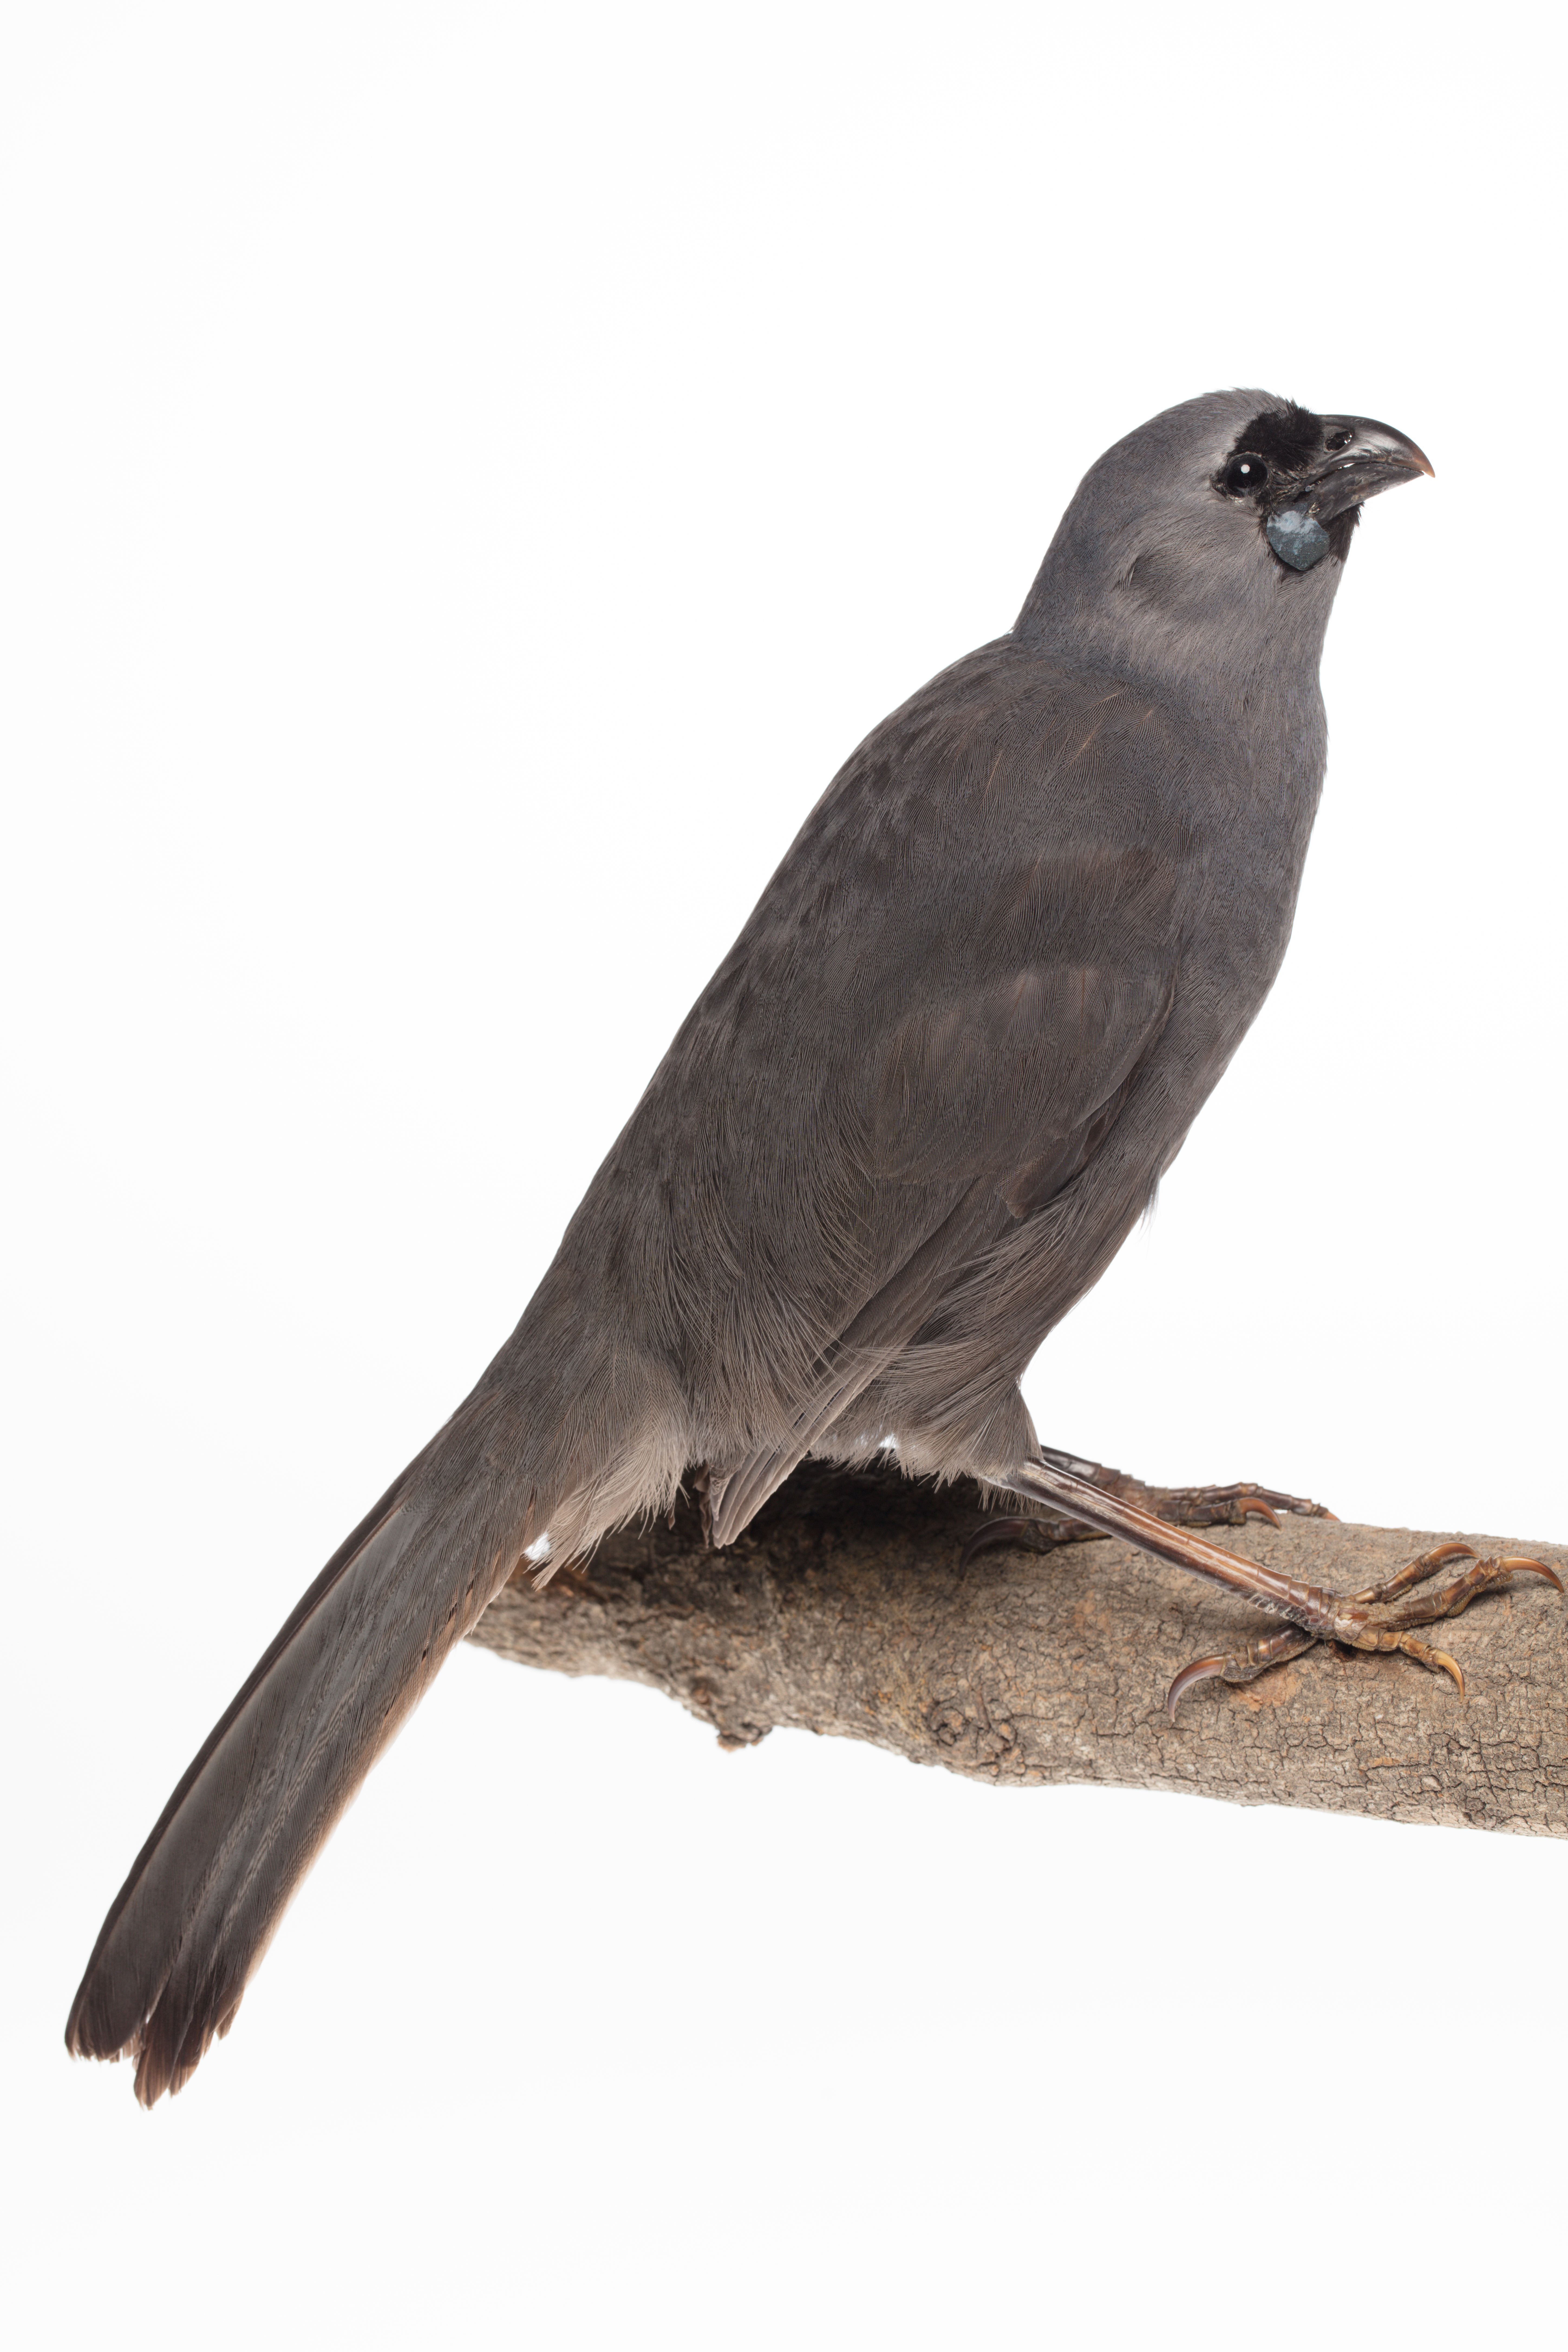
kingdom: Animalia
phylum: Chordata
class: Aves
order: Passeriformes
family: Callaeatidae
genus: Callaeas
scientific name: Callaeas cinereus
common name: South island kokako
